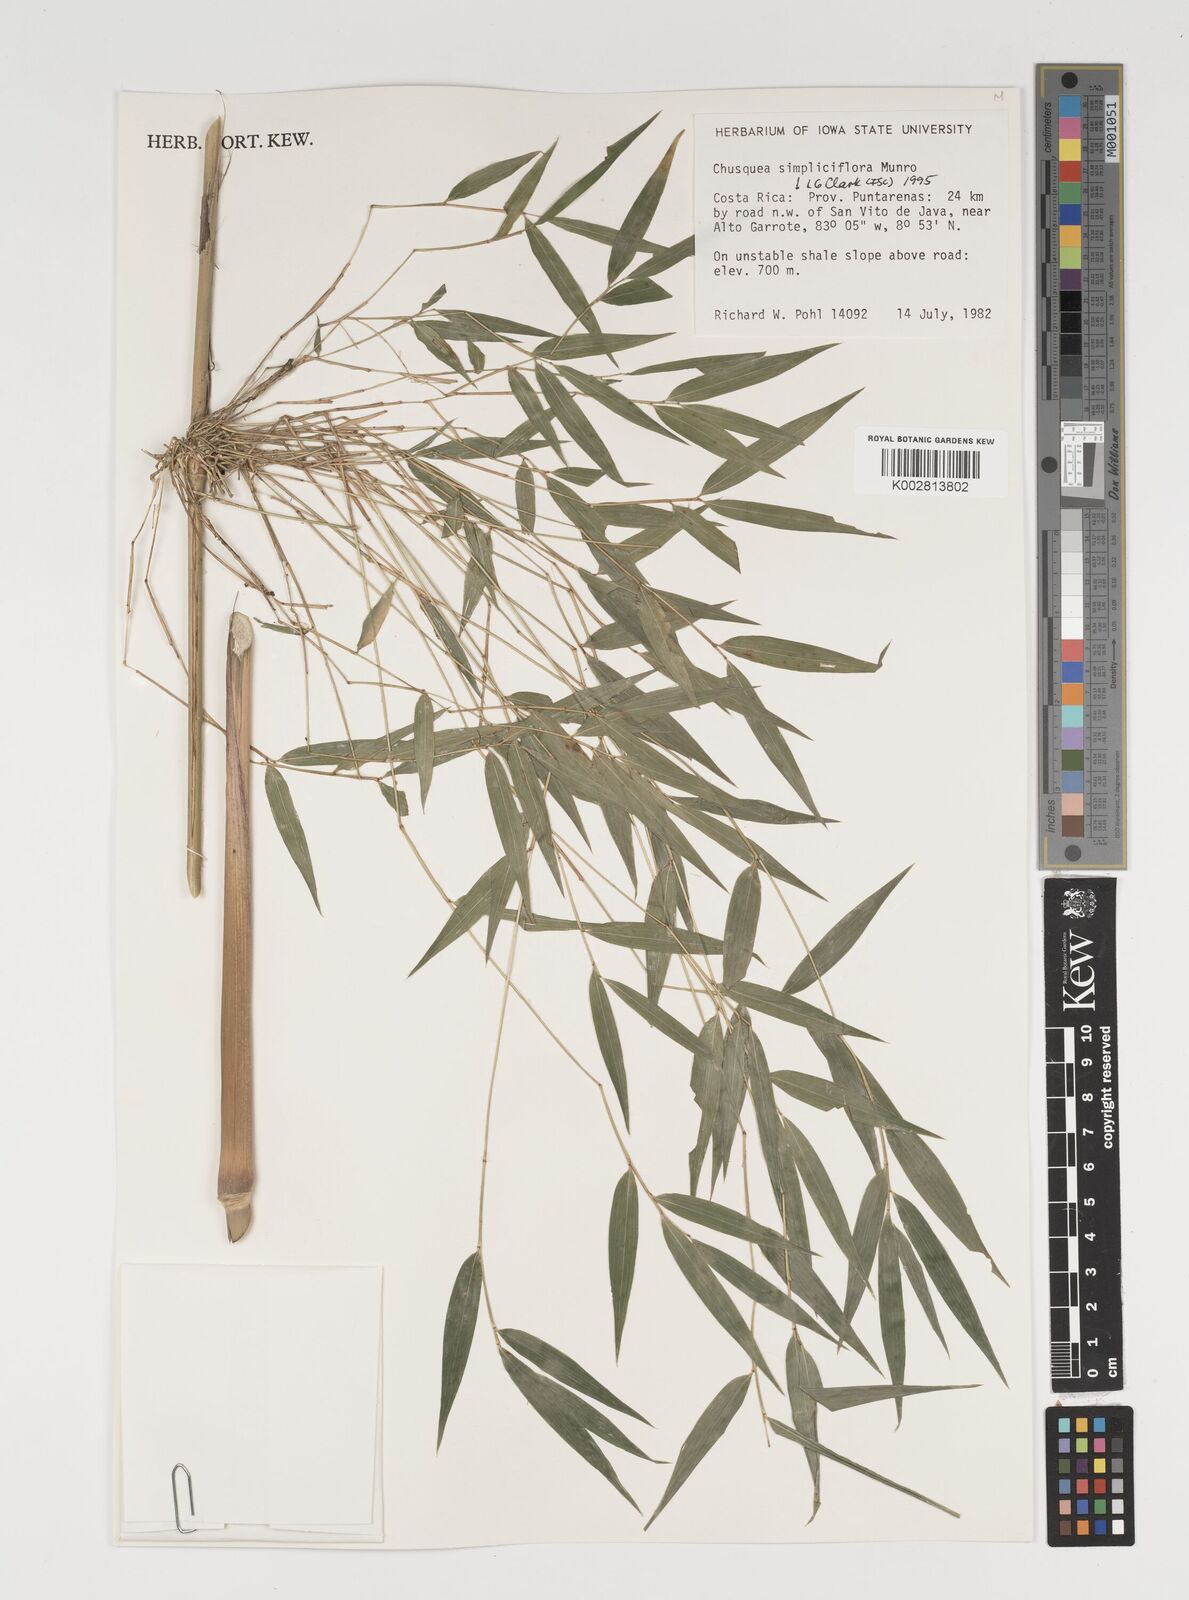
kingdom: Plantae
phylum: Tracheophyta
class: Liliopsida
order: Poales
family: Poaceae
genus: Chusquea
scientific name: Chusquea simpliciflora
